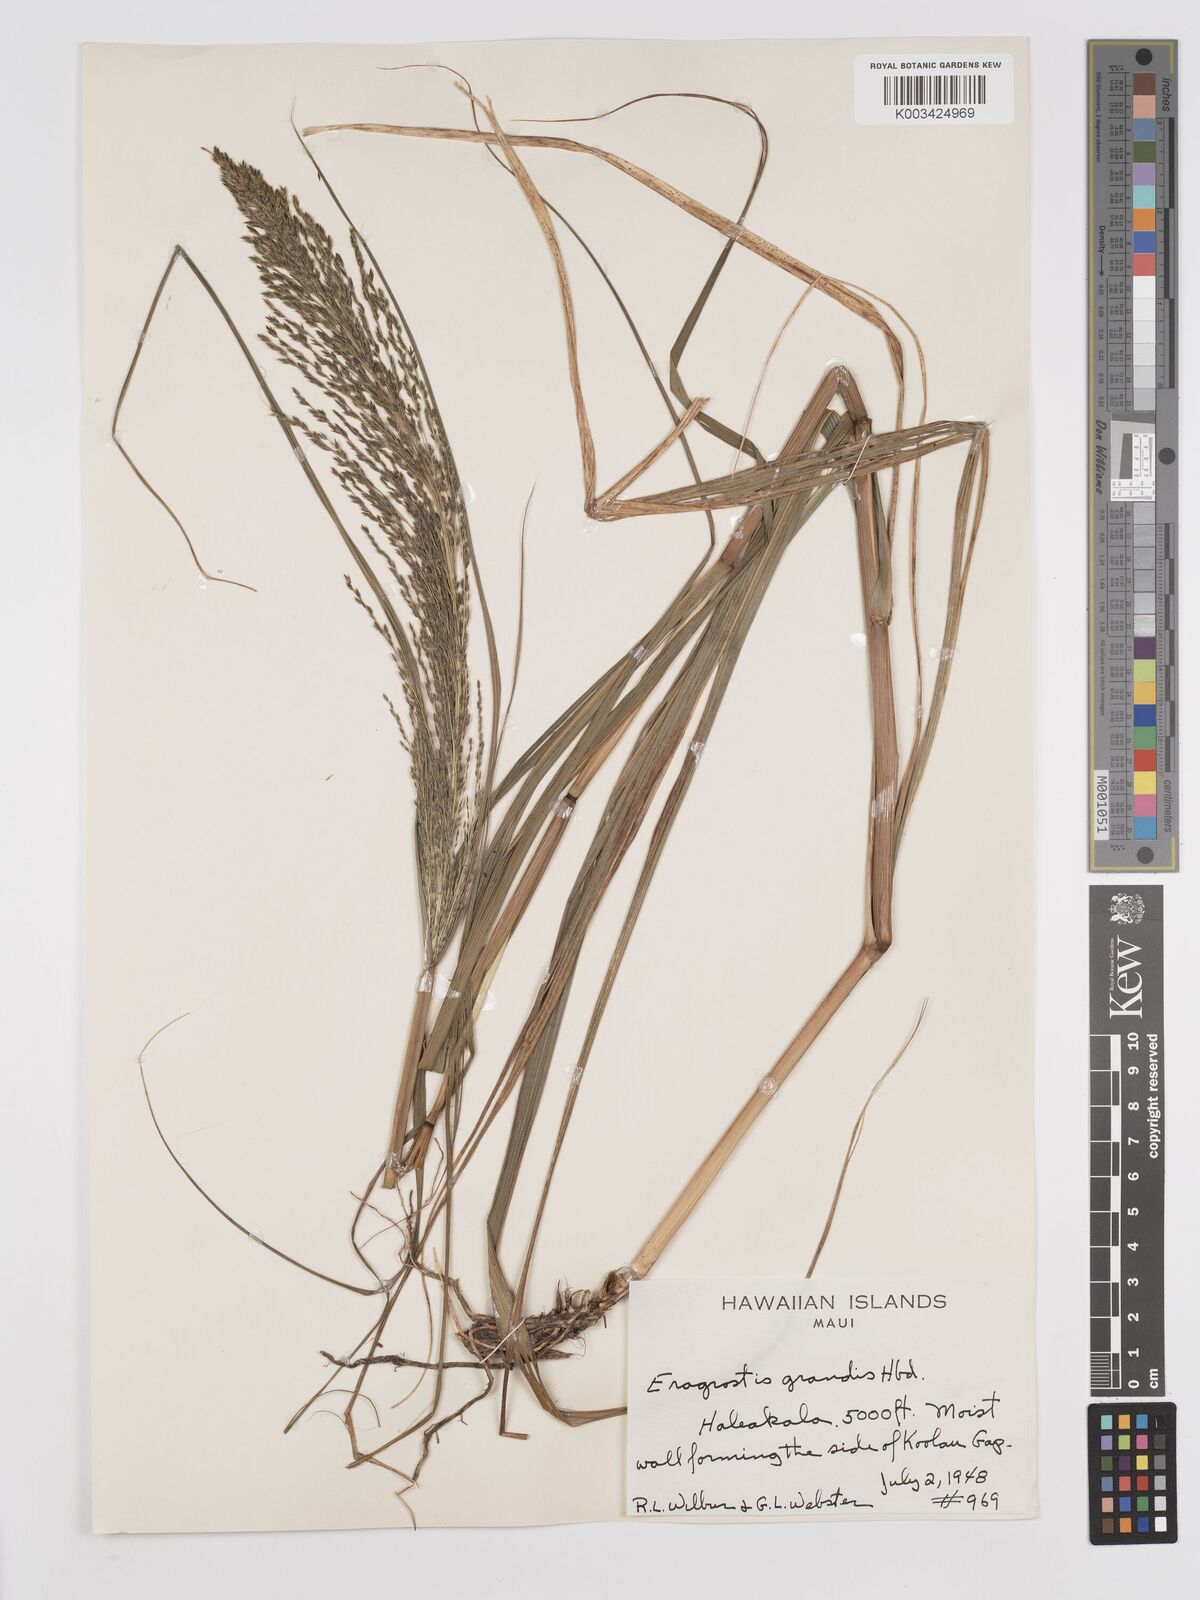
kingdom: Plantae
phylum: Tracheophyta
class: Liliopsida
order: Poales
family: Poaceae
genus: Eragrostis
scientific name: Eragrostis grandis
